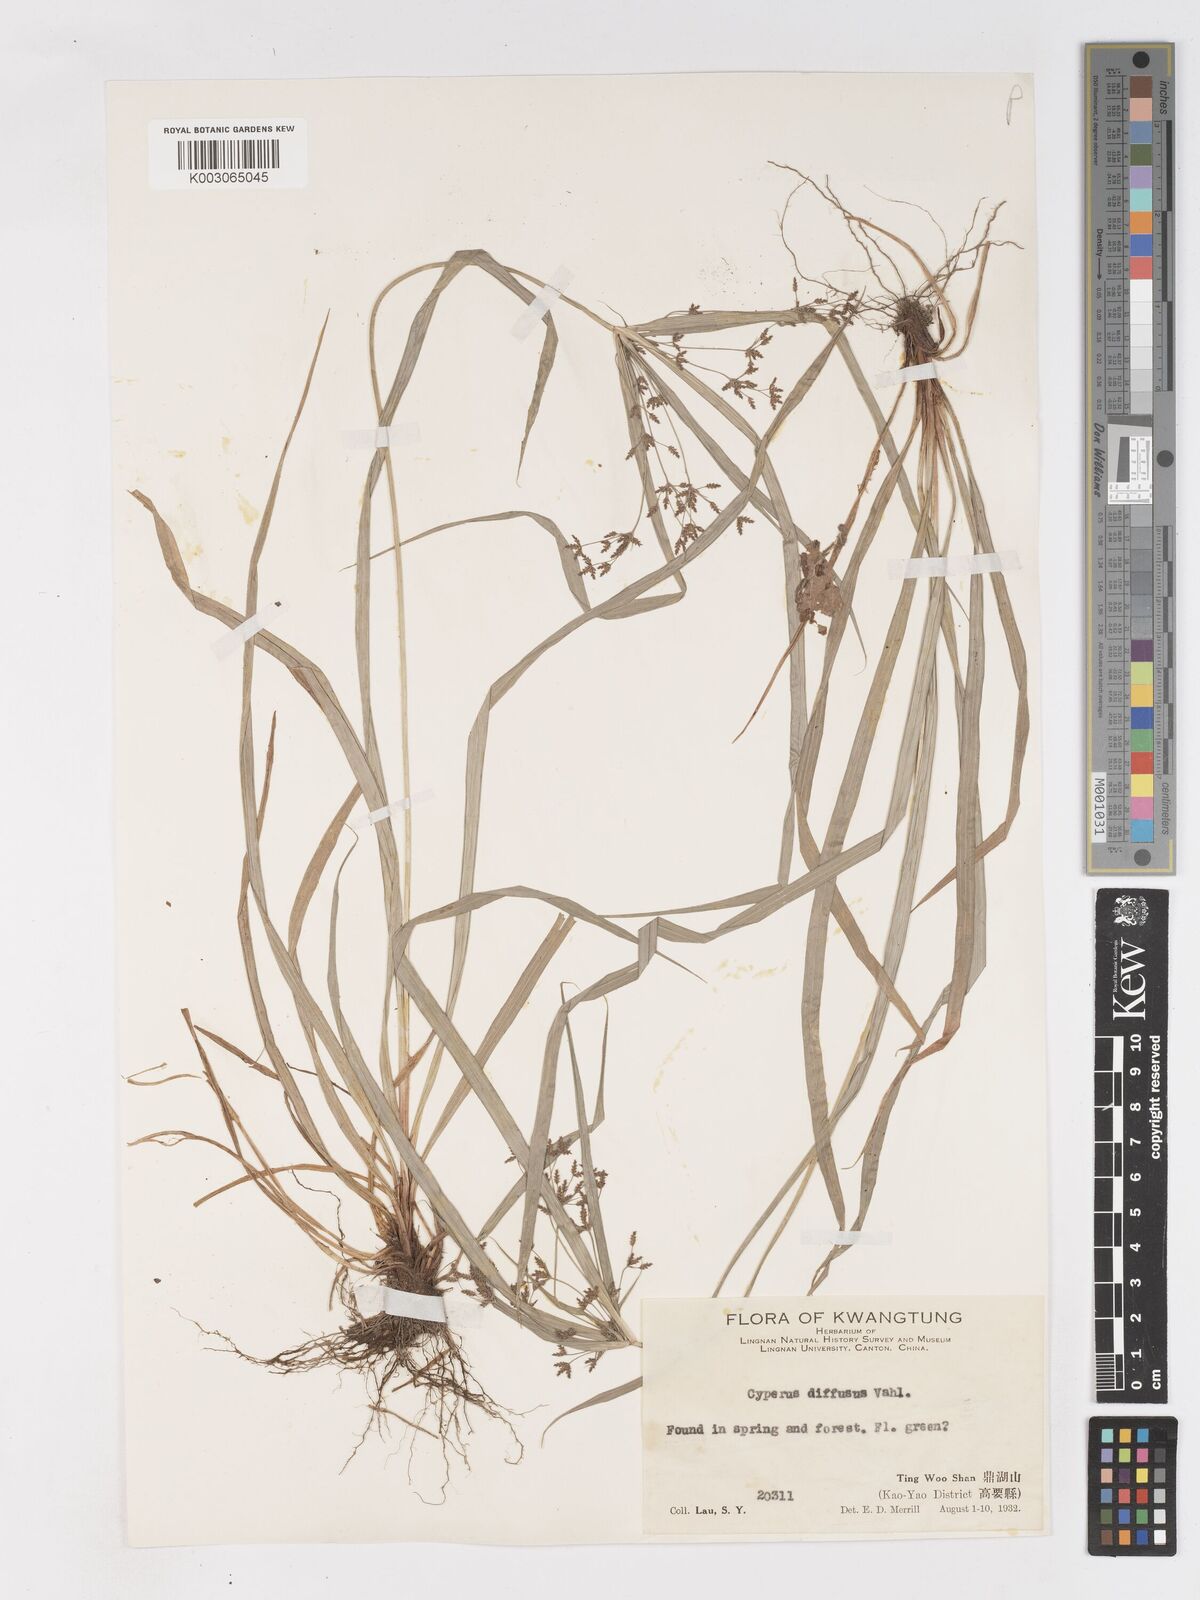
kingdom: Plantae
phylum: Tracheophyta
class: Liliopsida
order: Poales
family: Cyperaceae
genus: Cyperus
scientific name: Cyperus diffusus
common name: Dwarf umbrella grass
